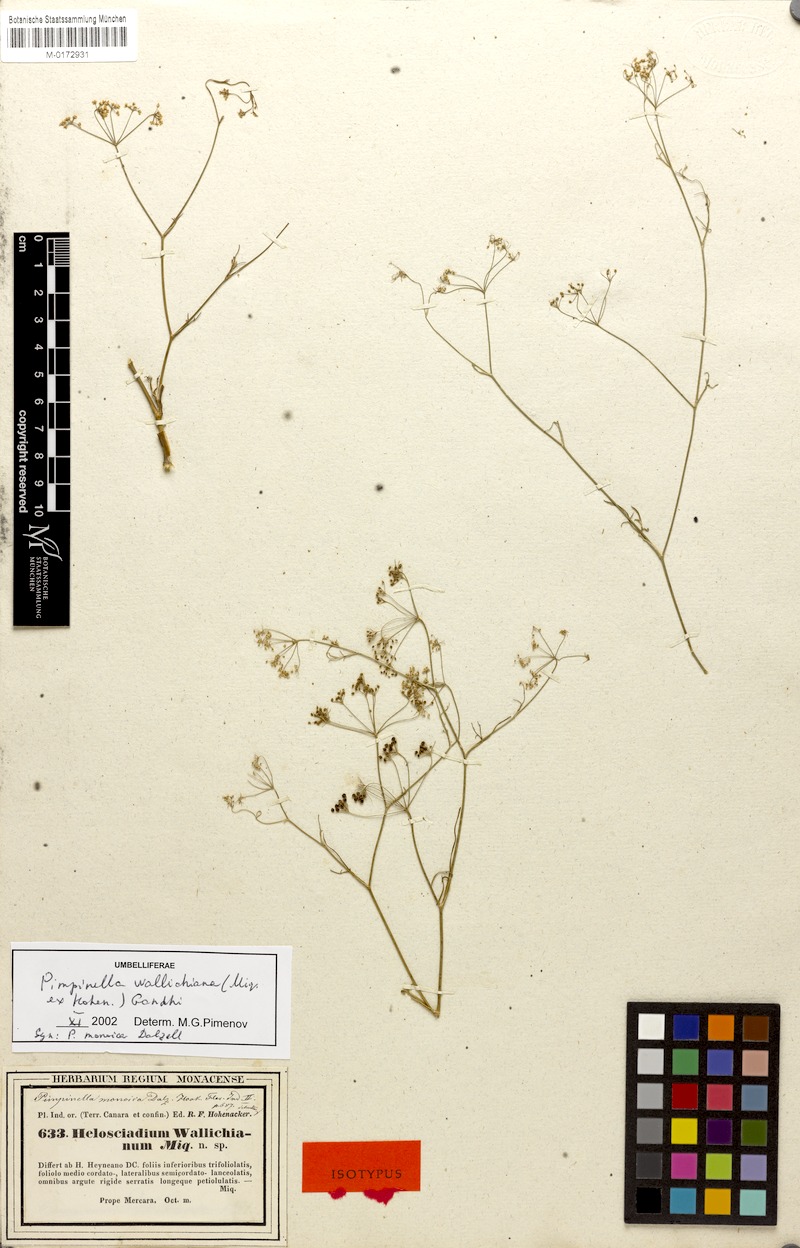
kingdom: Plantae
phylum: Tracheophyta
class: Magnoliopsida
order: Apiales
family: Apiaceae
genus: Pimpinella
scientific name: Pimpinella wallichiana
